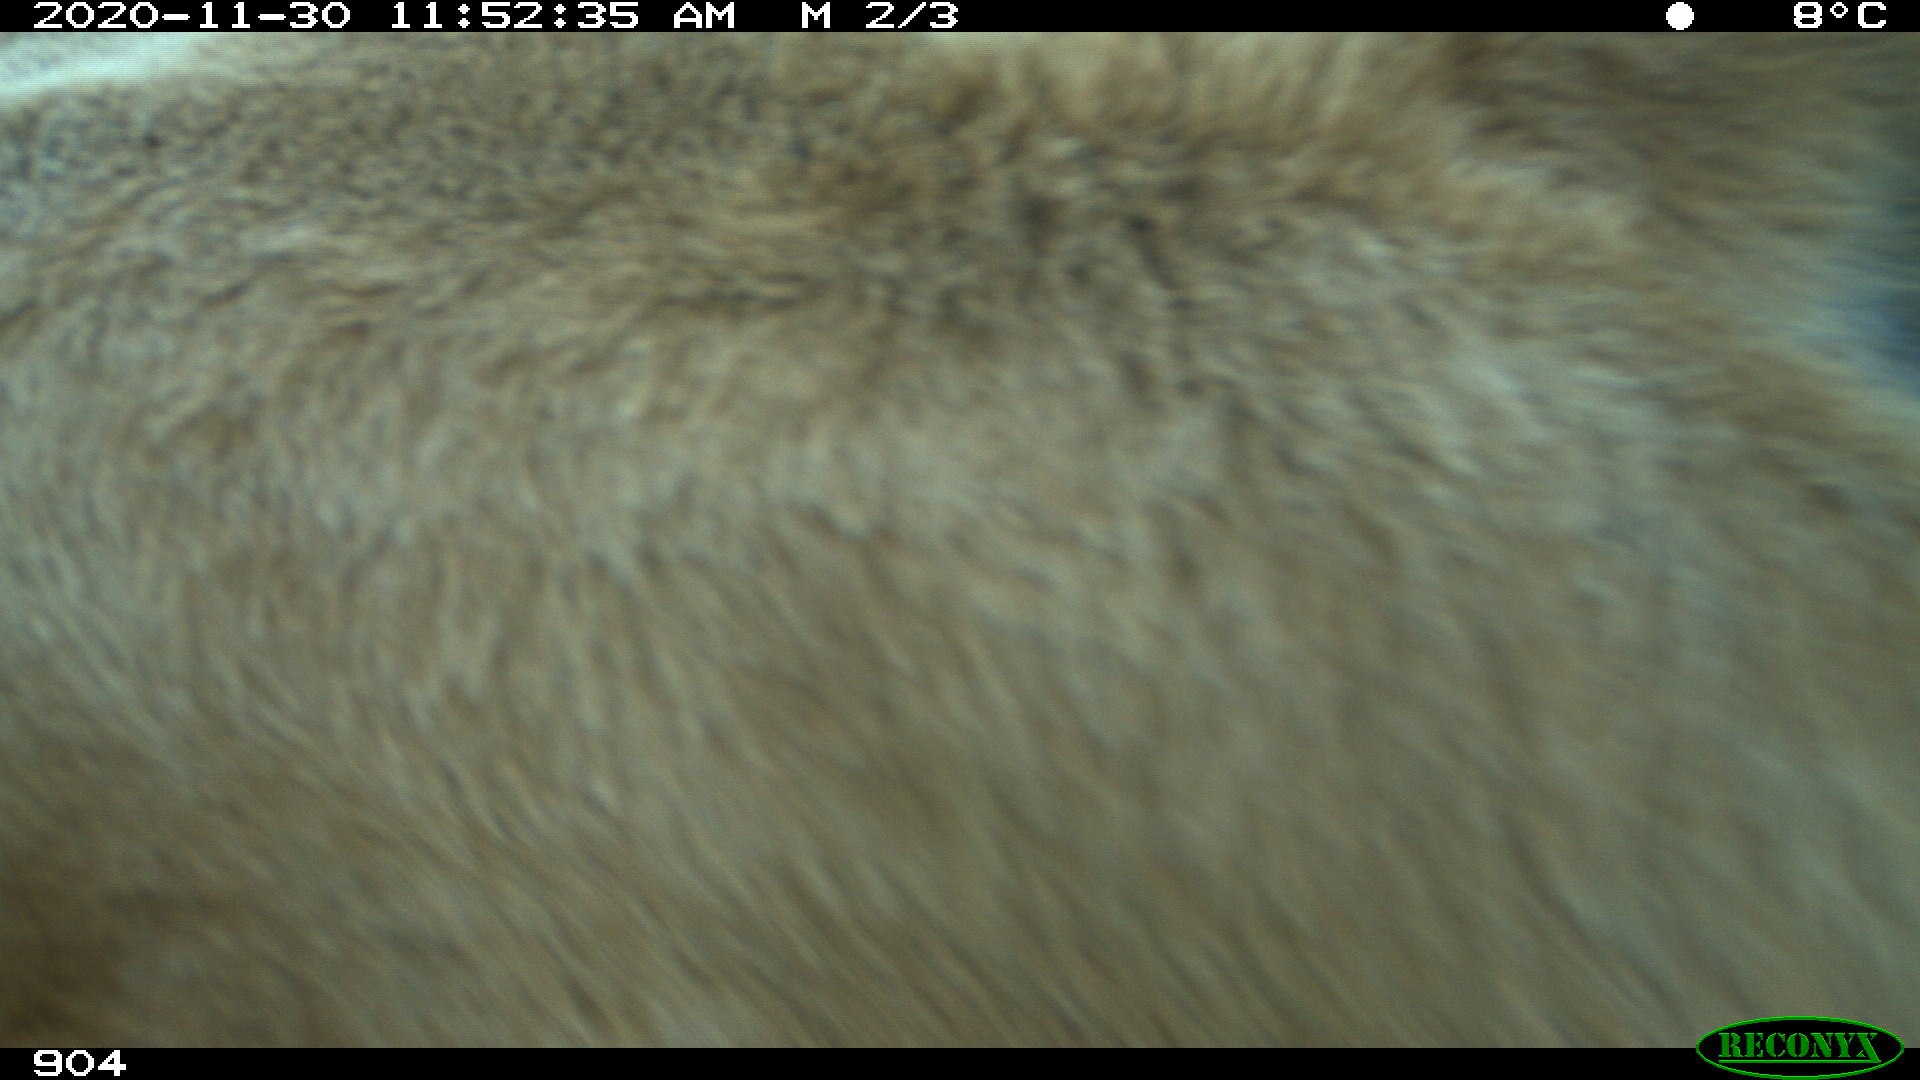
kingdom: Animalia
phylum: Chordata
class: Mammalia
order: Artiodactyla
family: Bovidae
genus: Bos
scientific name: Bos taurus
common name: Domesticated cattle
